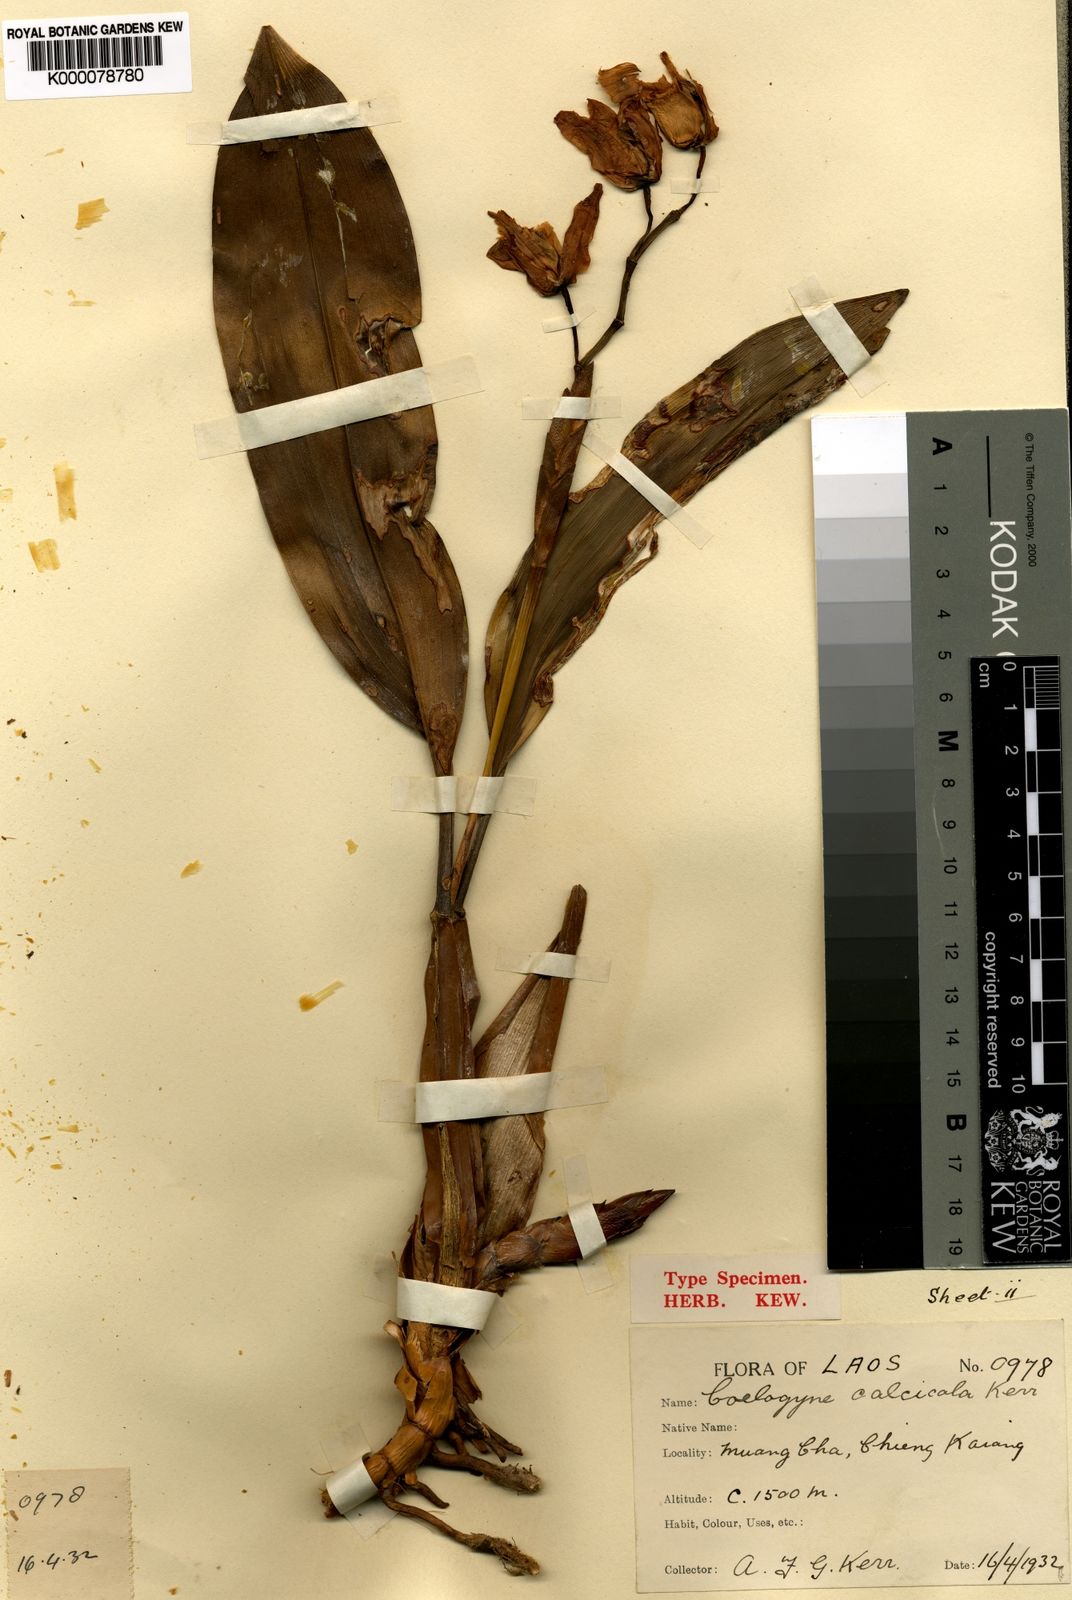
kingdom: Plantae
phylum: Tracheophyta
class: Liliopsida
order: Asparagales
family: Orchidaceae
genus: Coelogyne
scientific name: Coelogyne calcicola
